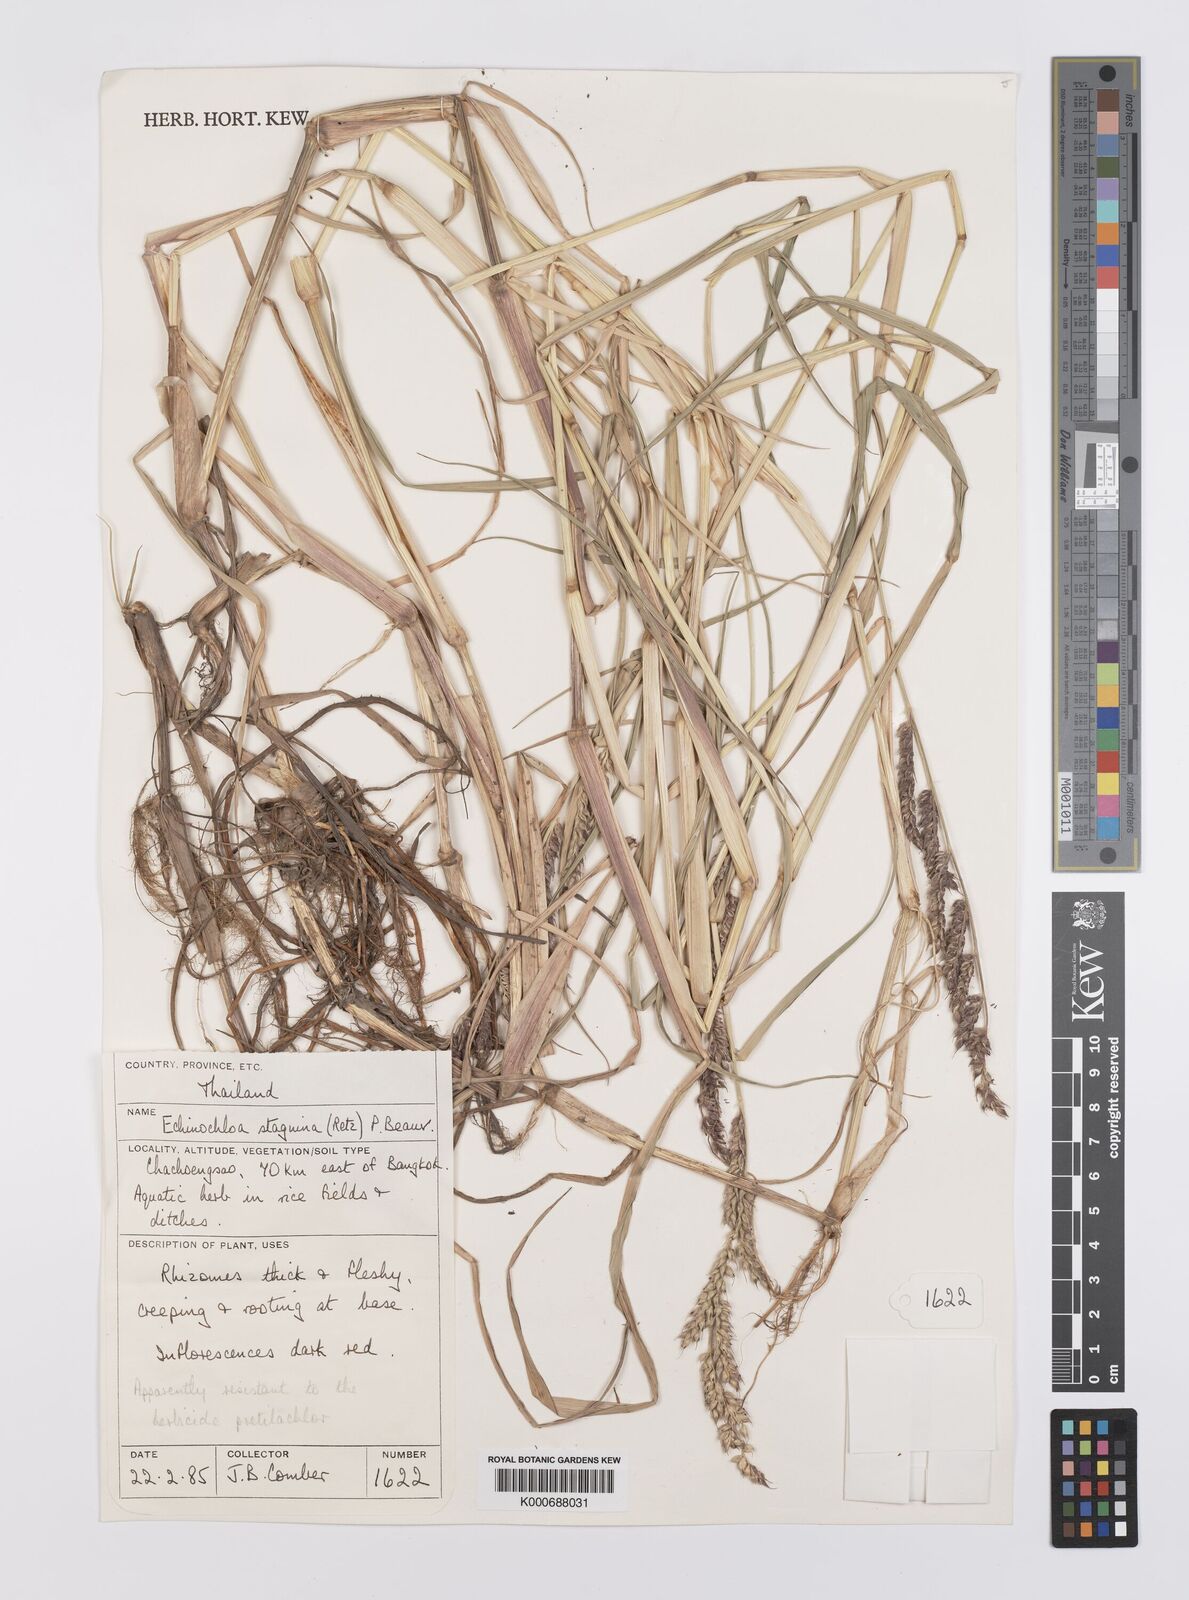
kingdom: Plantae
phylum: Tracheophyta
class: Liliopsida
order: Poales
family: Poaceae
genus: Echinochloa
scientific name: Echinochloa picta
